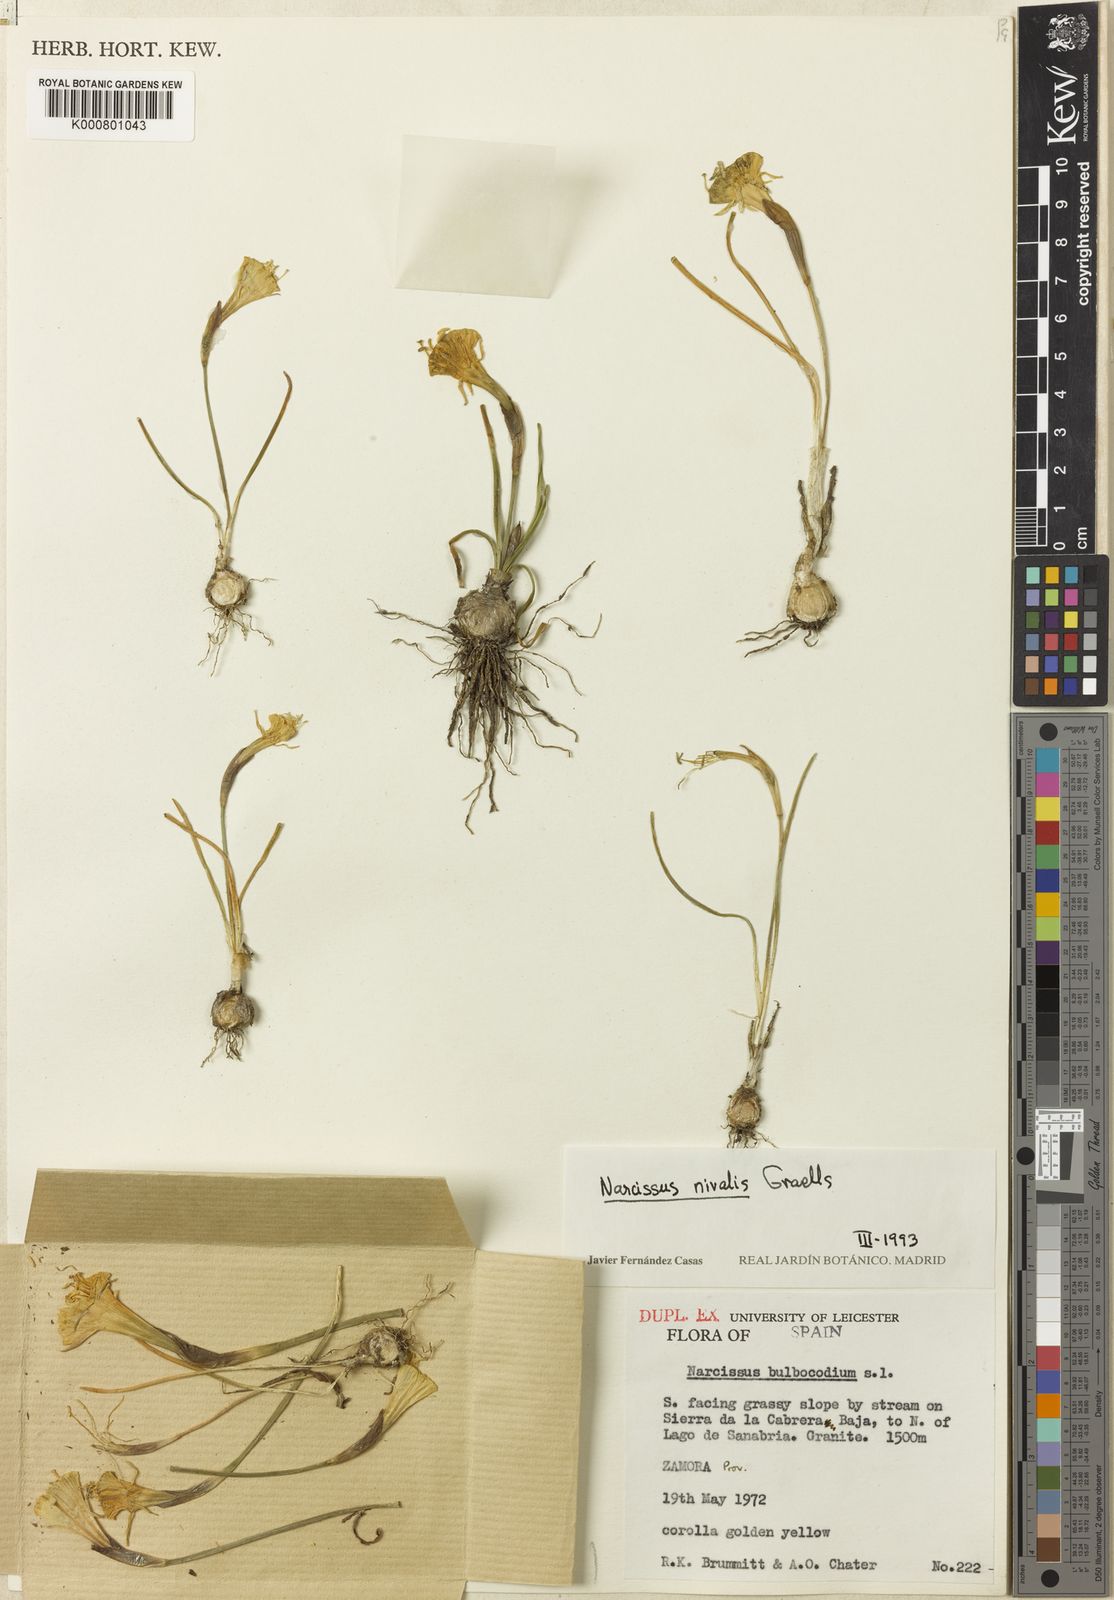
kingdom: Plantae
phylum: Tracheophyta
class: Liliopsida
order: Asparagales
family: Amaryllidaceae
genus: Narcissus
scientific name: Narcissus bulbocodium
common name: Hoop-petticoat daffodil
